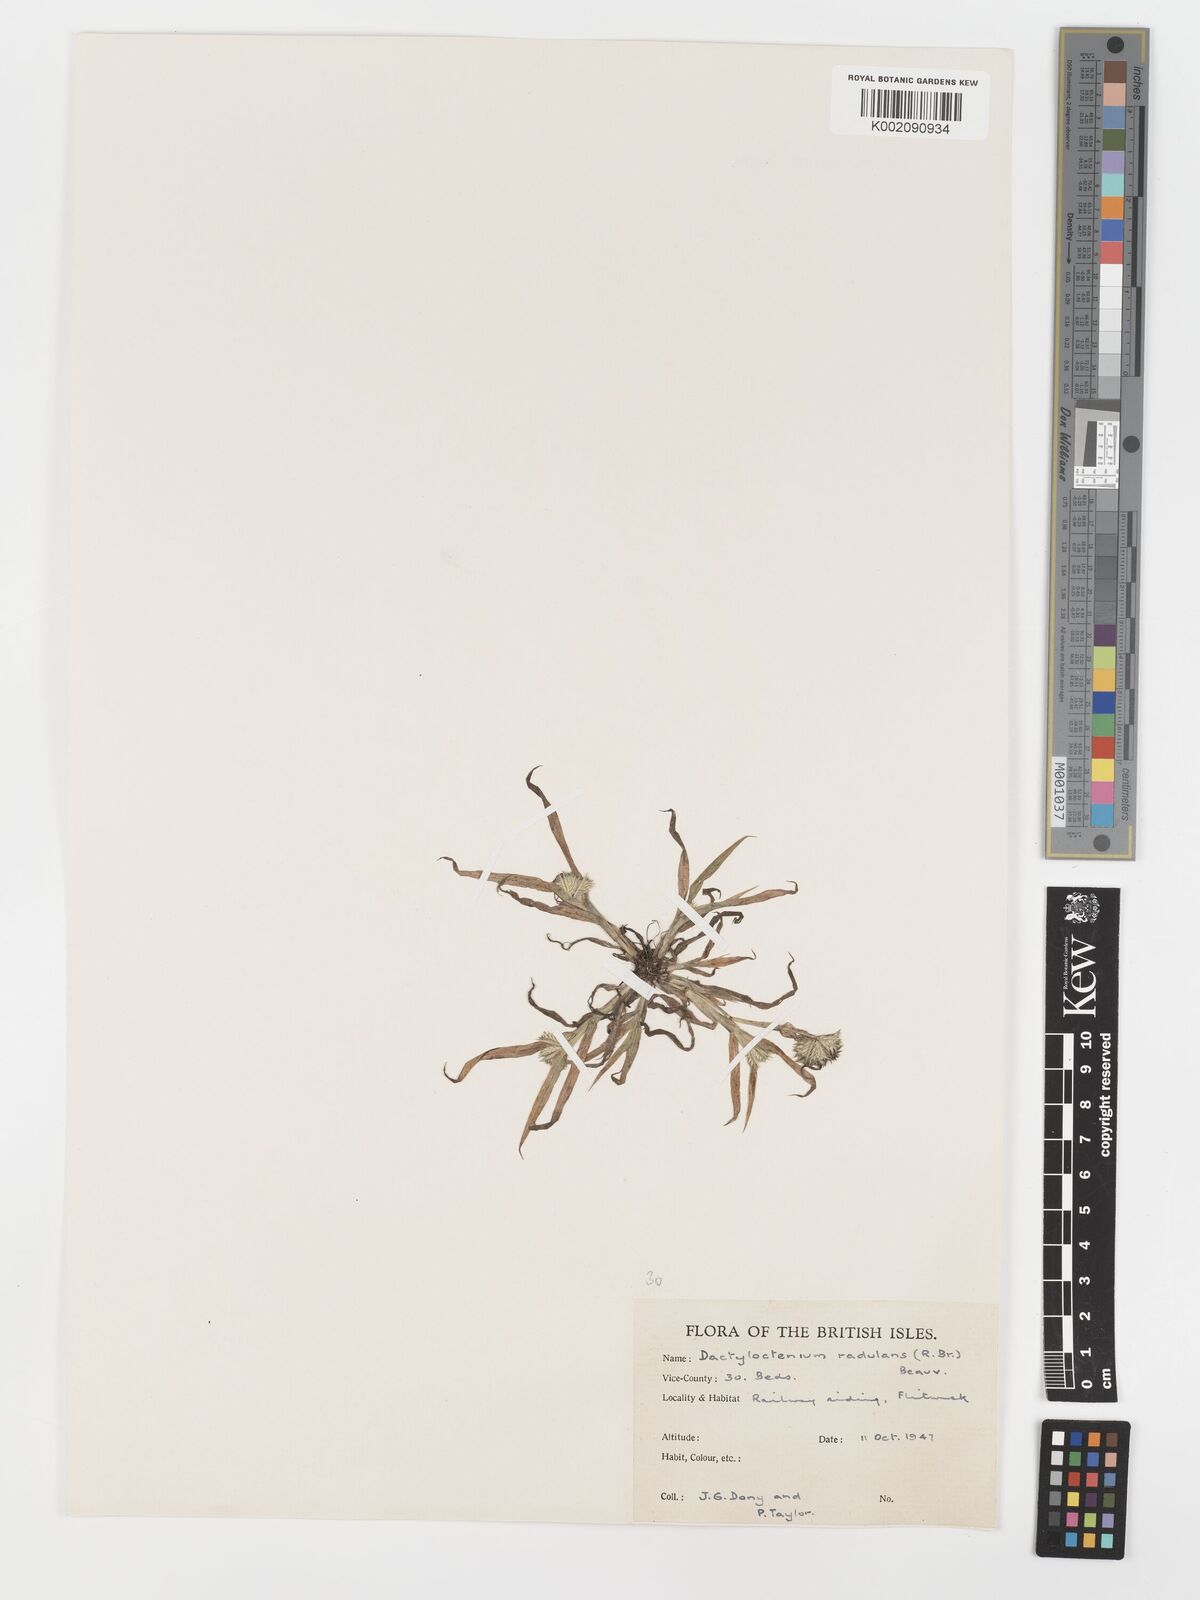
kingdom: Plantae
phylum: Tracheophyta
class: Liliopsida
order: Poales
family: Poaceae
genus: Dactyloctenium
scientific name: Dactyloctenium radulans
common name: Button-grass
